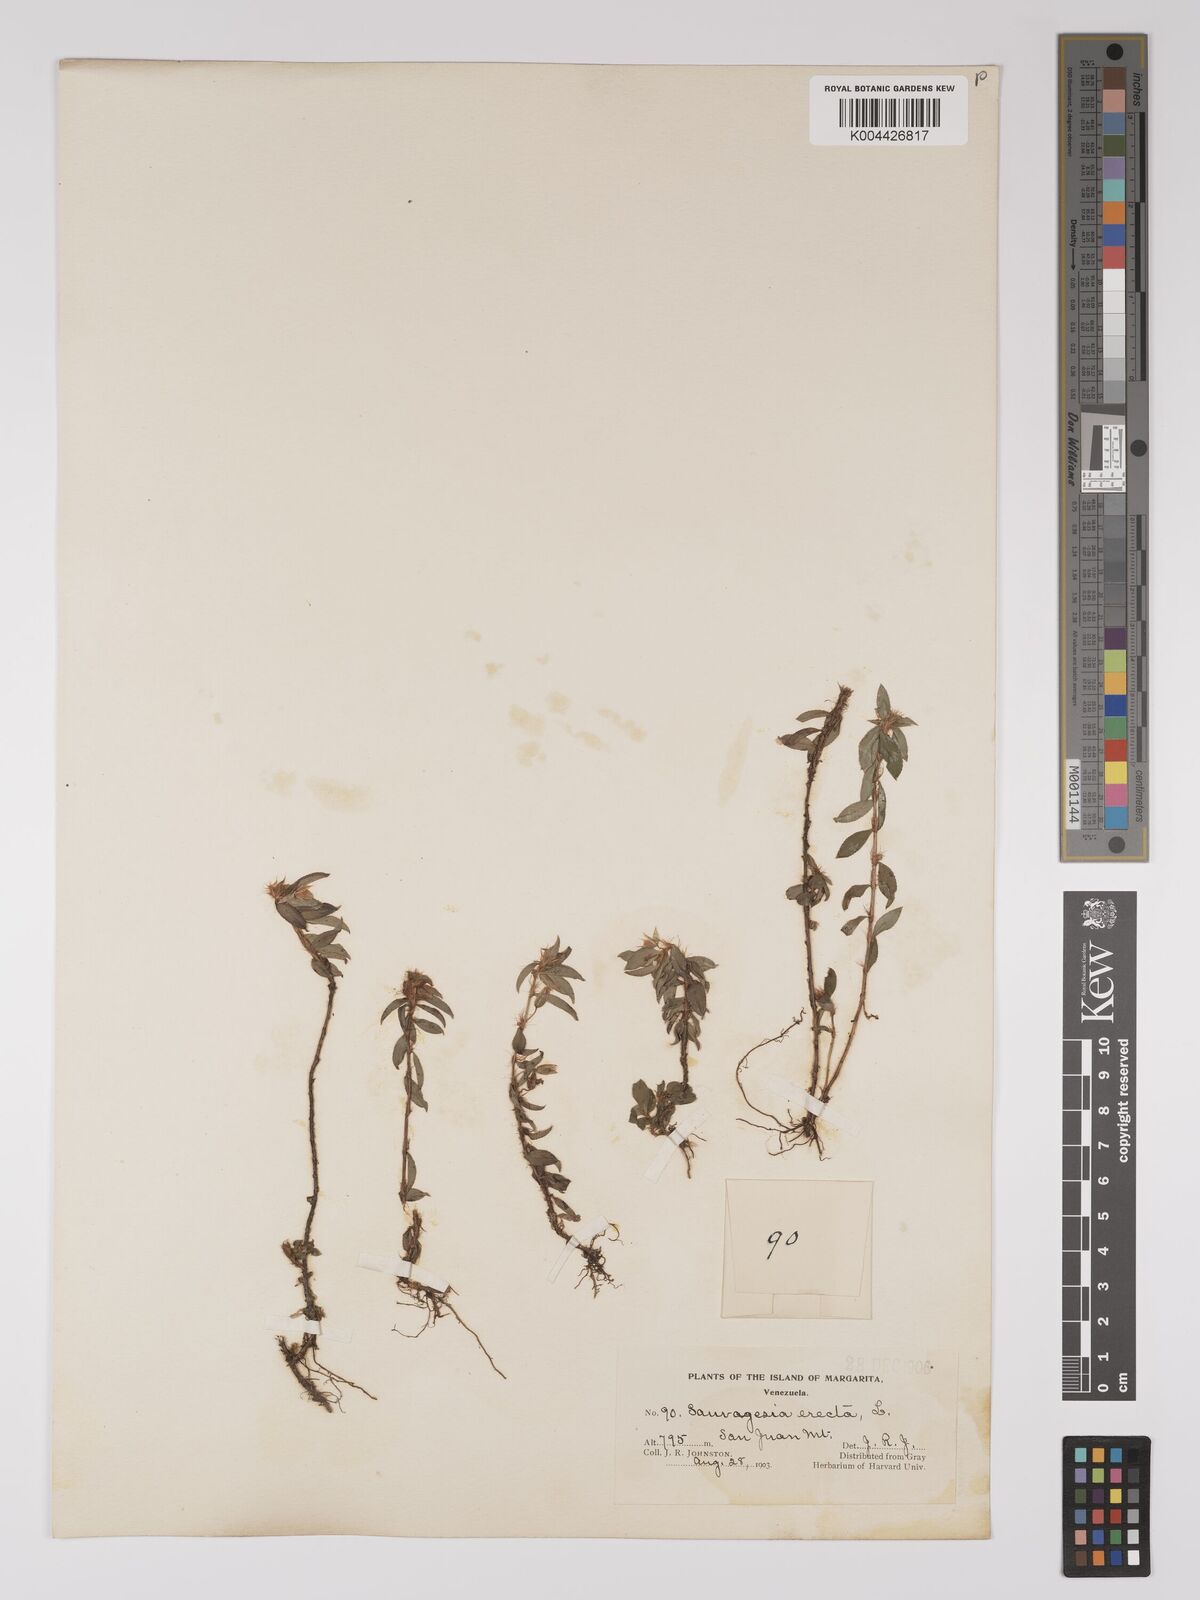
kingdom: Plantae
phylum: Tracheophyta
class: Magnoliopsida
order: Malpighiales
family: Ochnaceae
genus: Sauvagesia
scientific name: Sauvagesia erecta
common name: Creole tea
